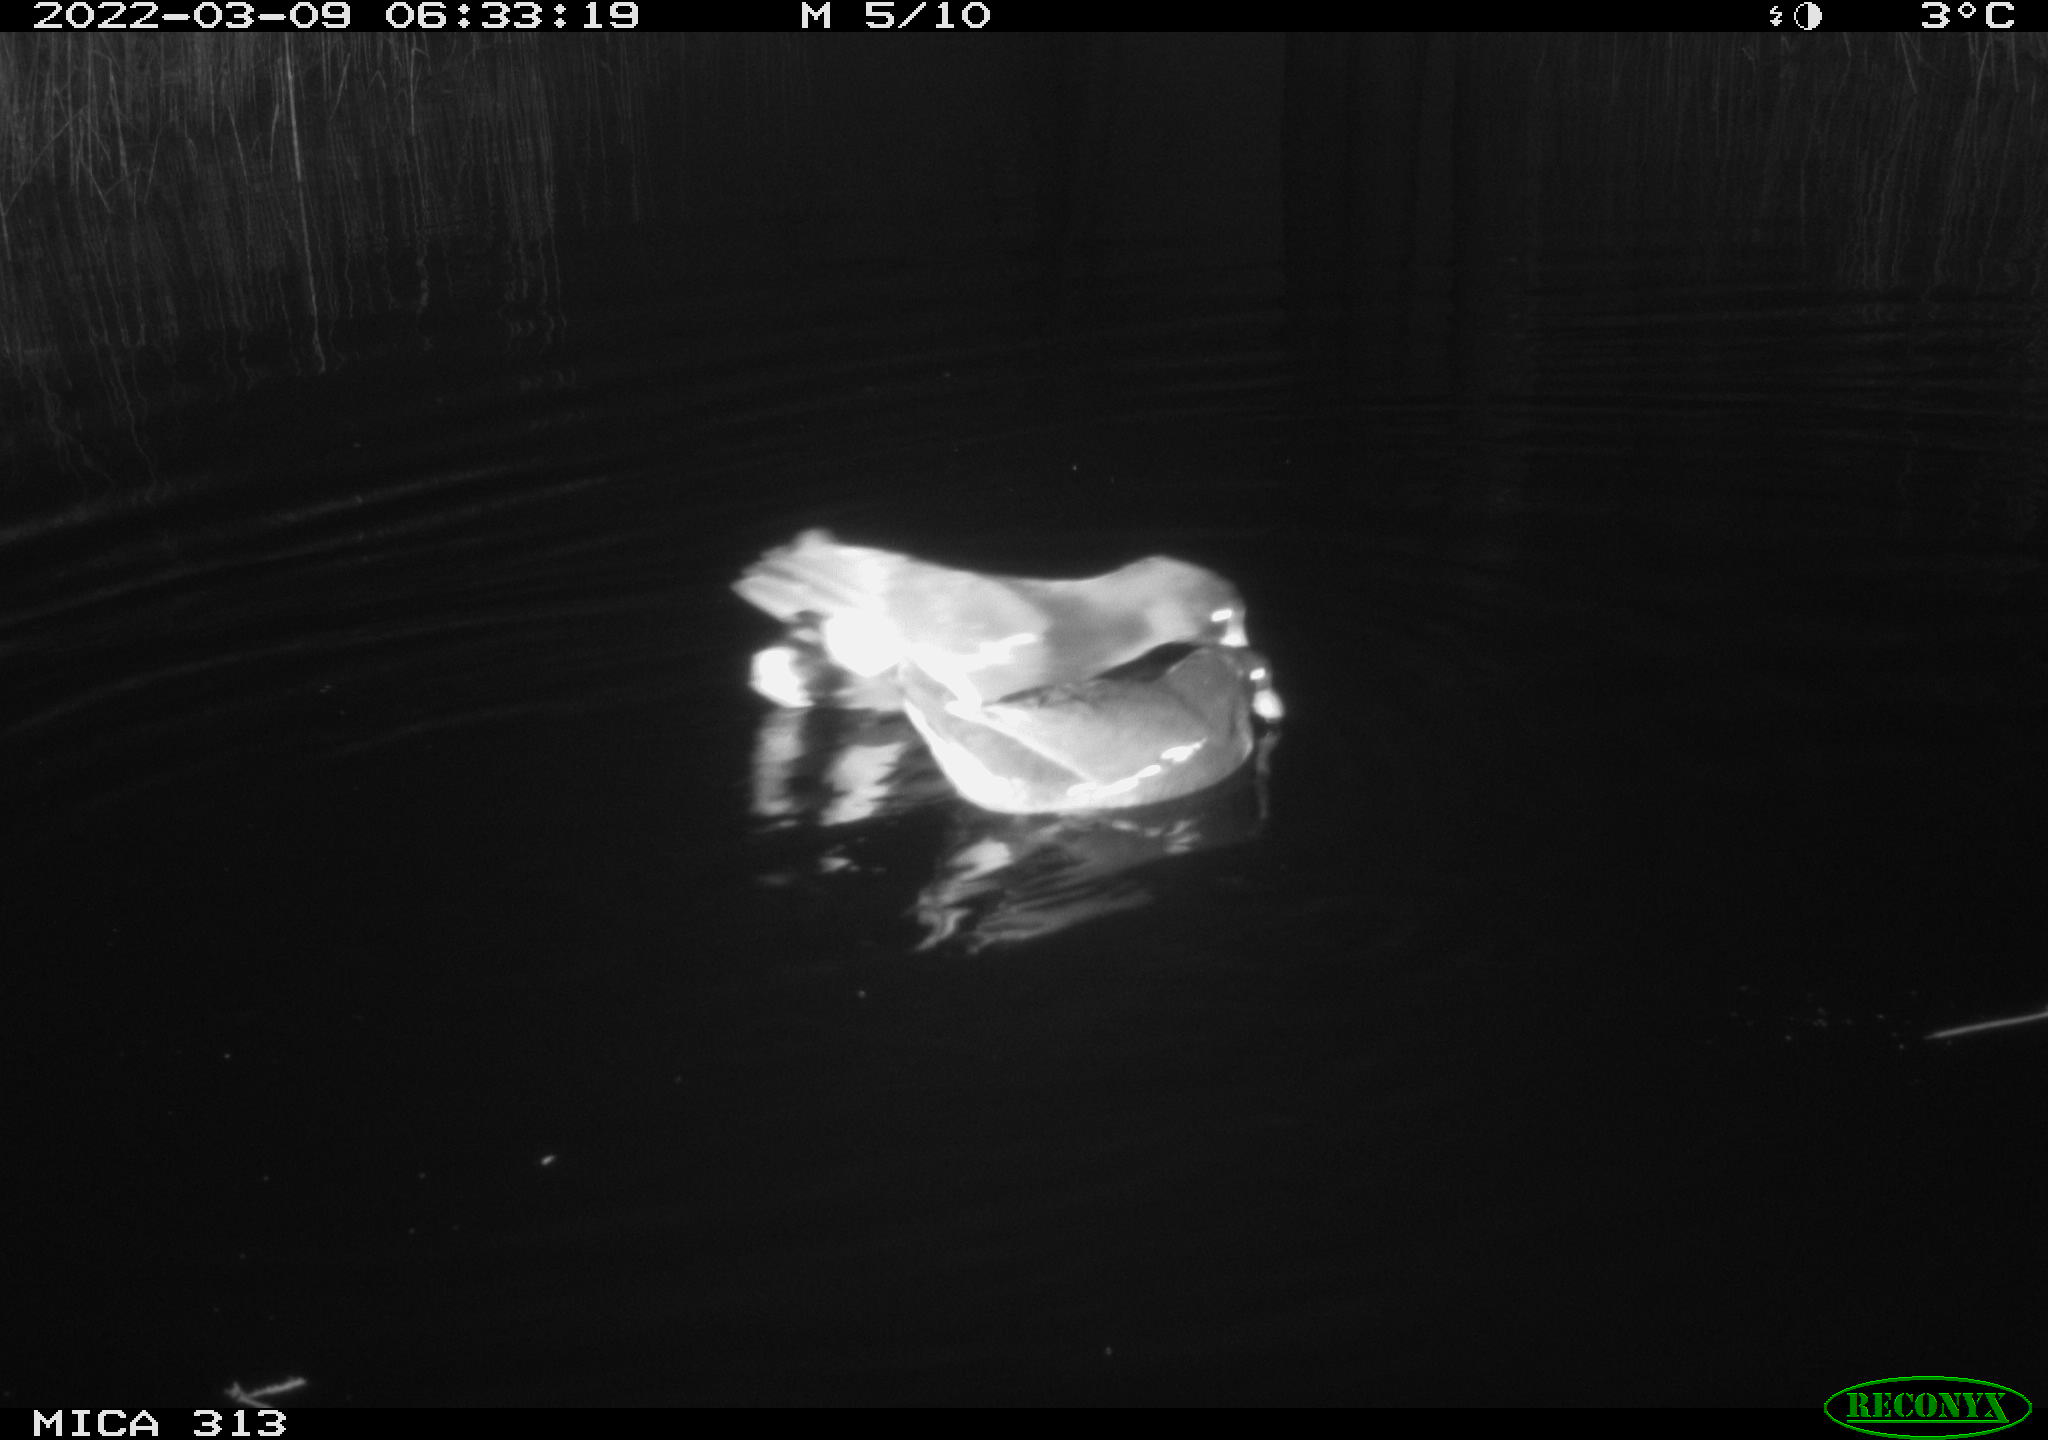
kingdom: Animalia
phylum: Chordata
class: Aves
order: Gruiformes
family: Rallidae
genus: Gallinula
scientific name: Gallinula chloropus
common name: Common moorhen
